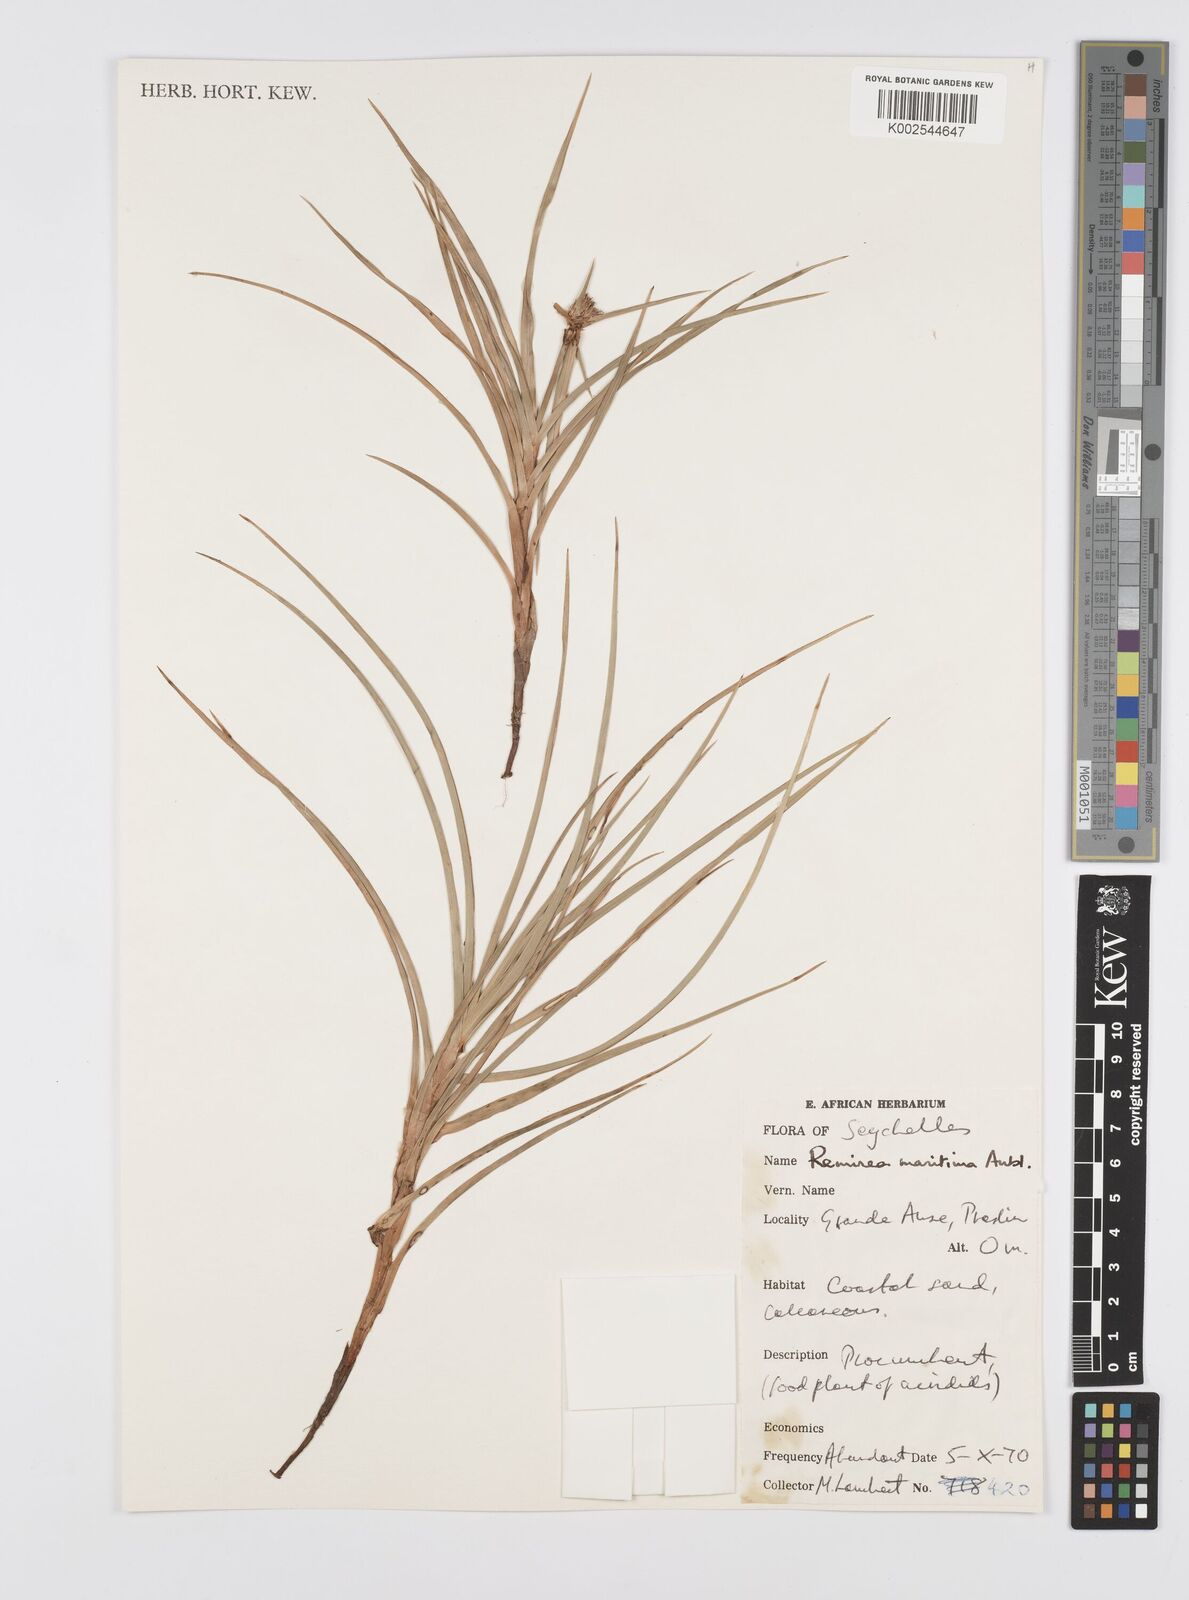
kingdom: Plantae
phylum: Tracheophyta
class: Liliopsida
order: Poales
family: Cyperaceae
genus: Cyperus
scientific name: Cyperus
